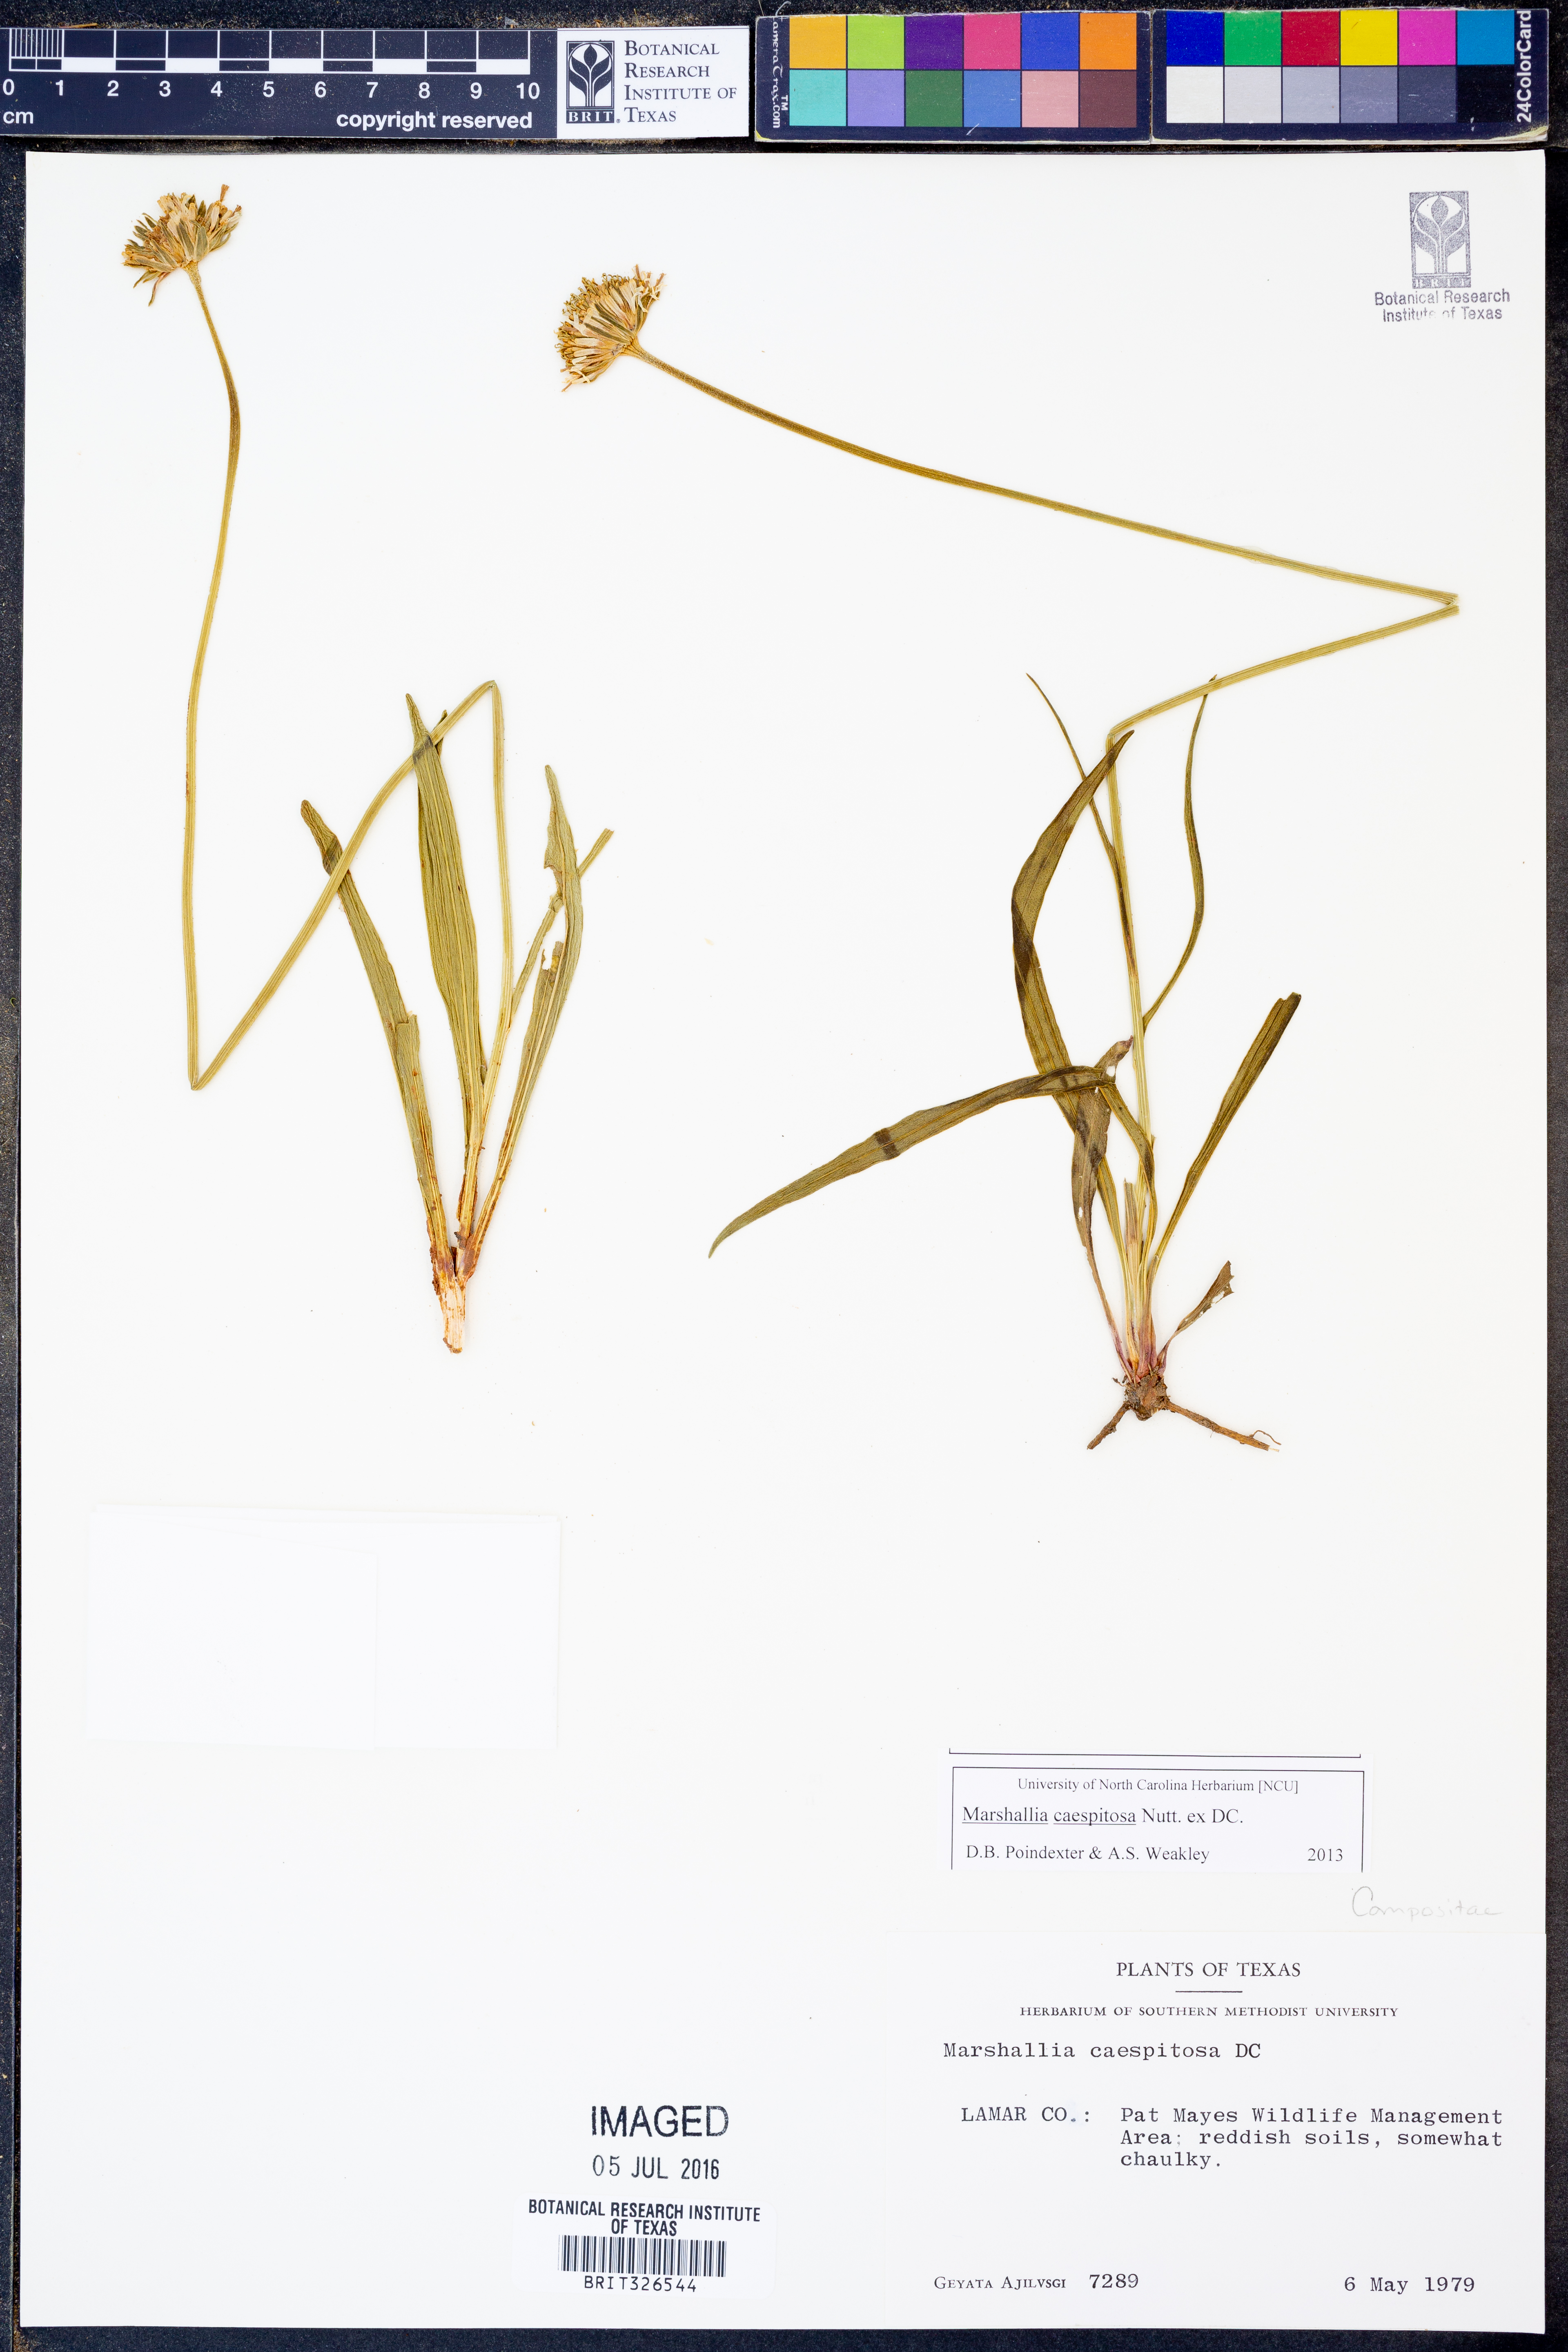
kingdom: Plantae
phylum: Tracheophyta
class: Magnoliopsida
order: Asterales
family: Asteraceae
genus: Marshallia
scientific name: Marshallia caespitosa
